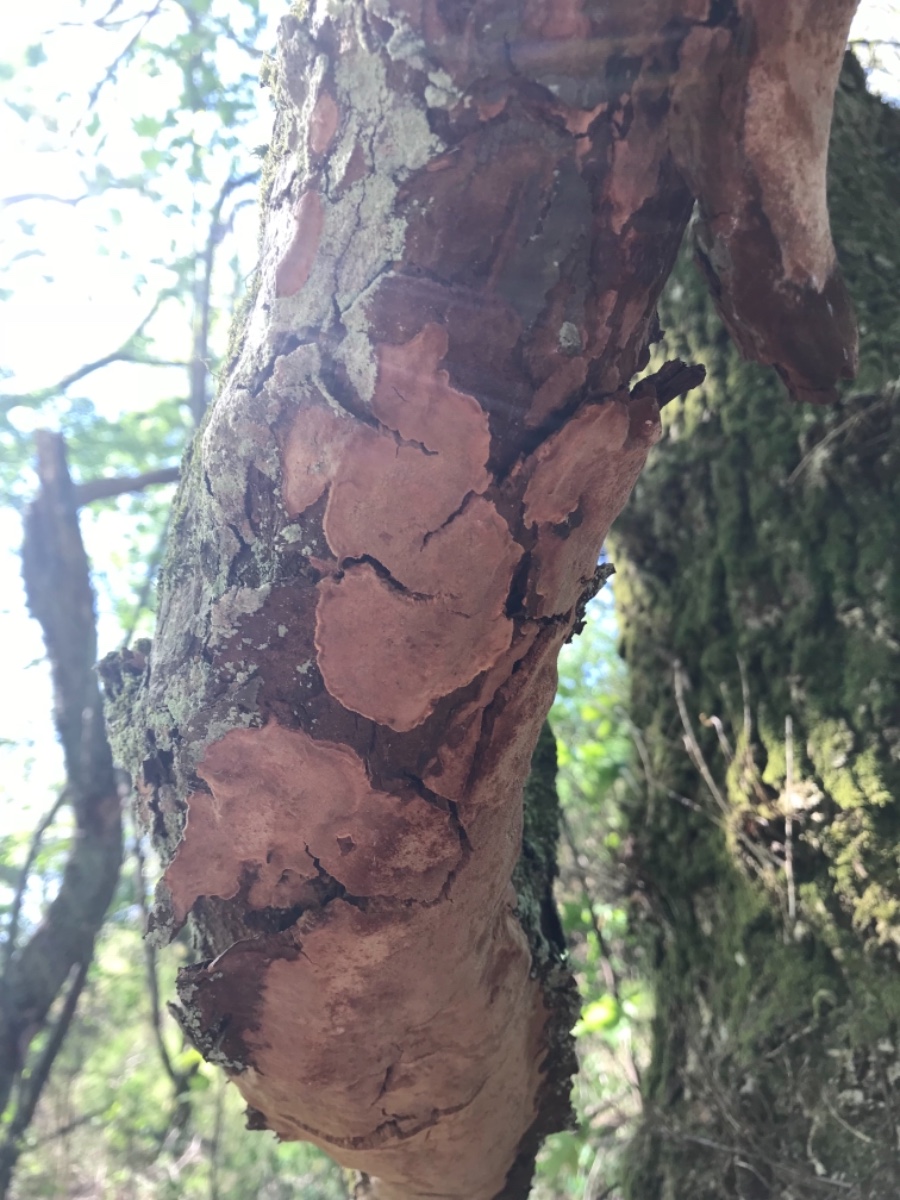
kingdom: Fungi
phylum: Basidiomycota
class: Agaricomycetes
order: Hymenochaetales
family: Hymenochaetaceae
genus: Fuscoporia
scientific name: Fuscoporia ferrea
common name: skorpe-ildporesvamp
